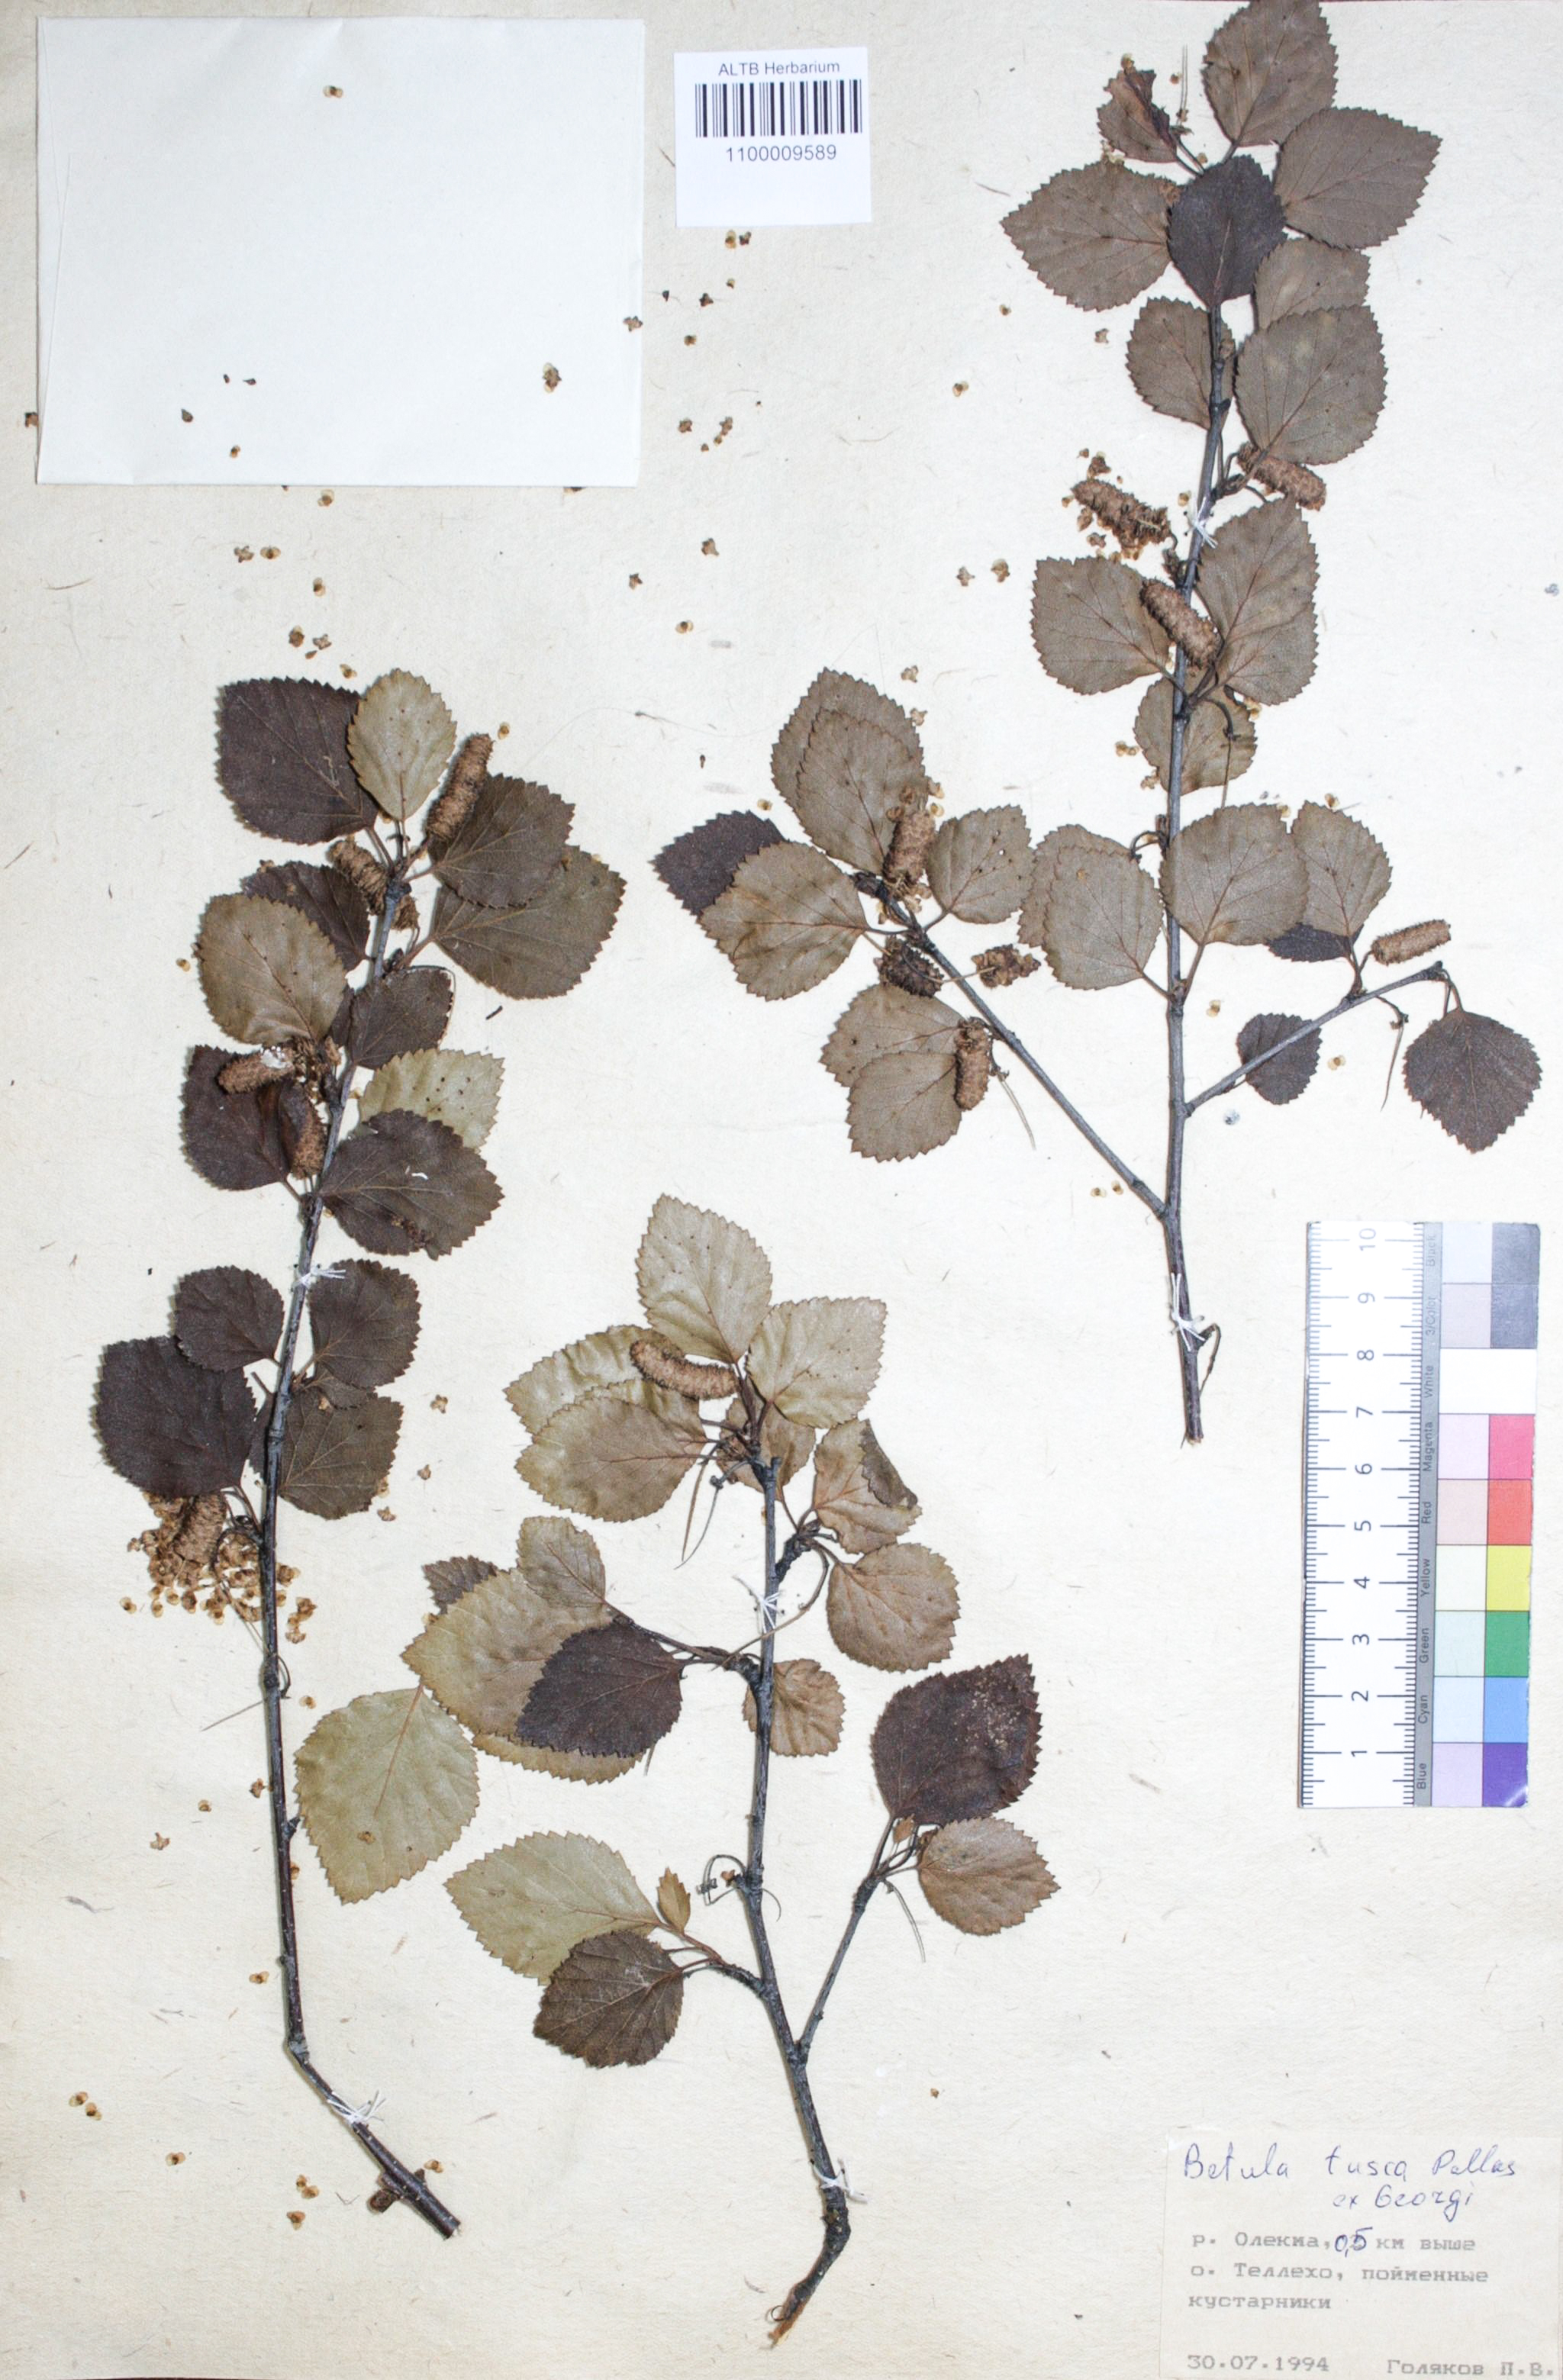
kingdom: Plantae
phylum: Tracheophyta
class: Magnoliopsida
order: Fagales
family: Betulaceae
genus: Betula
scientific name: Betula fusca
